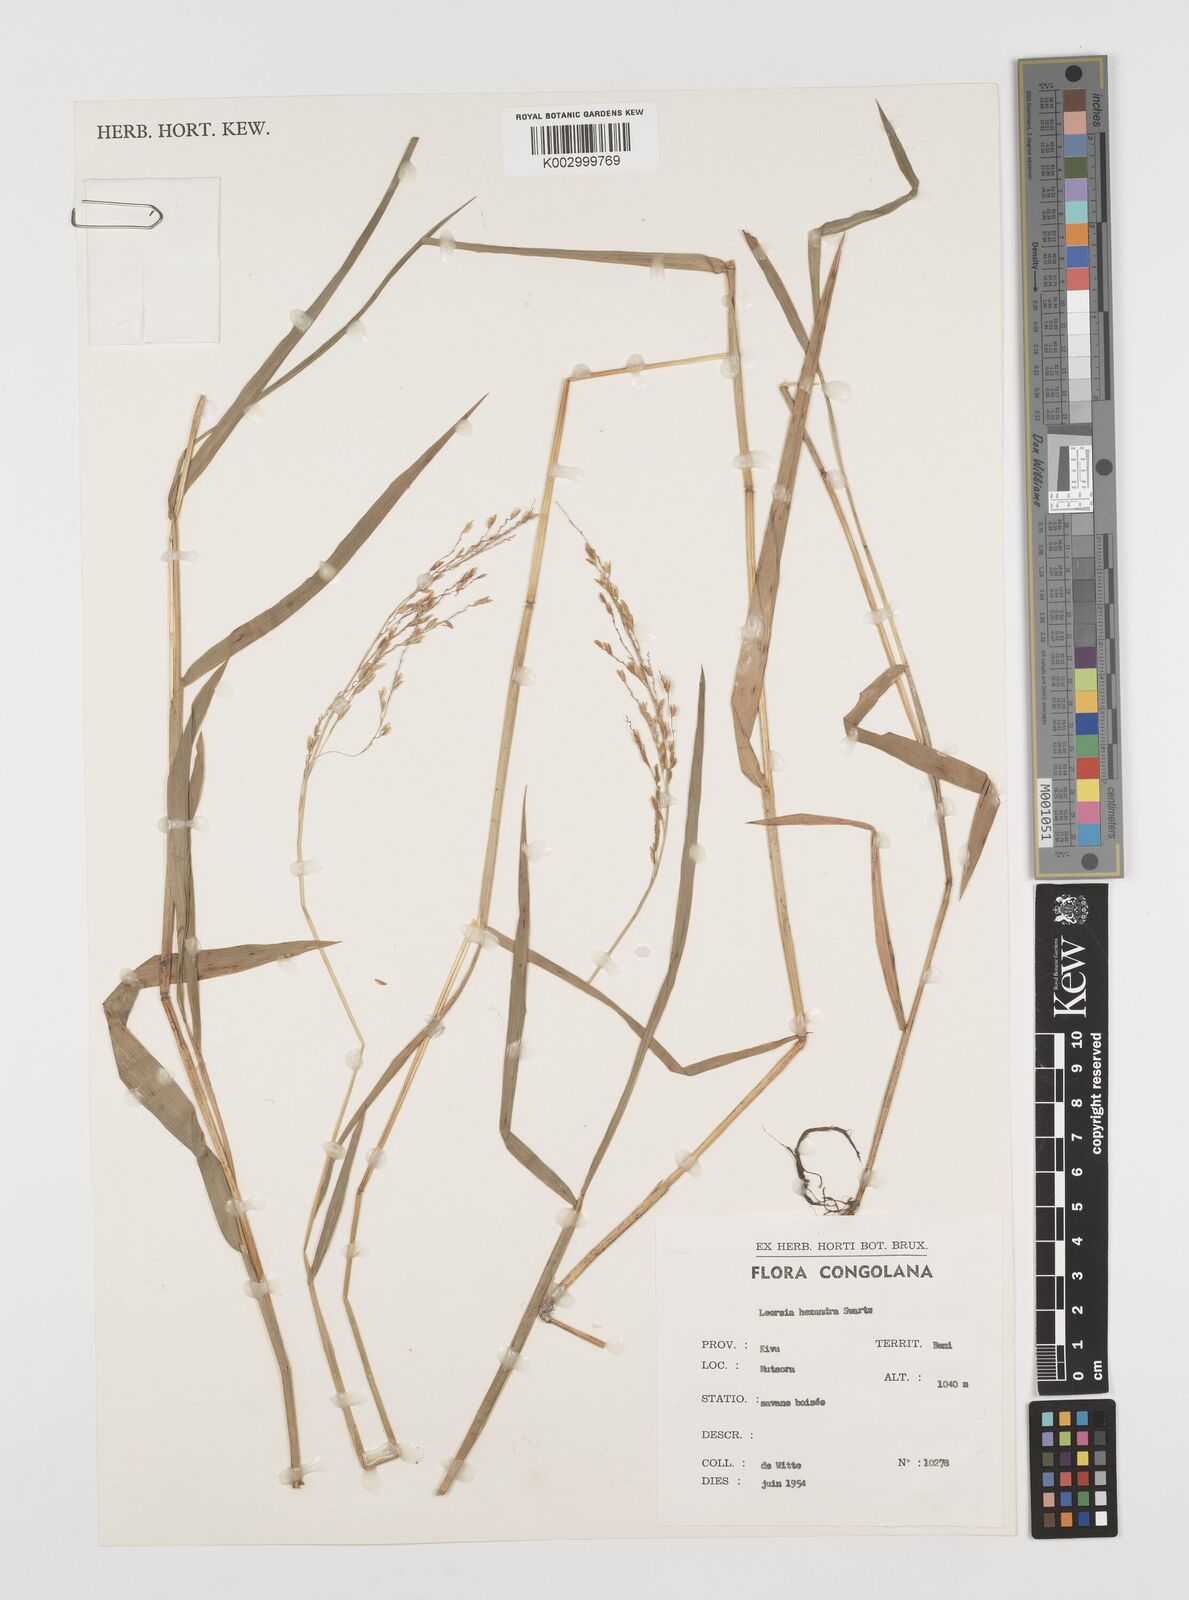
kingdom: Plantae
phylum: Tracheophyta
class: Liliopsida
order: Poales
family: Poaceae
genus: Leersia
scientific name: Leersia hexandra
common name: Southern cut grass
